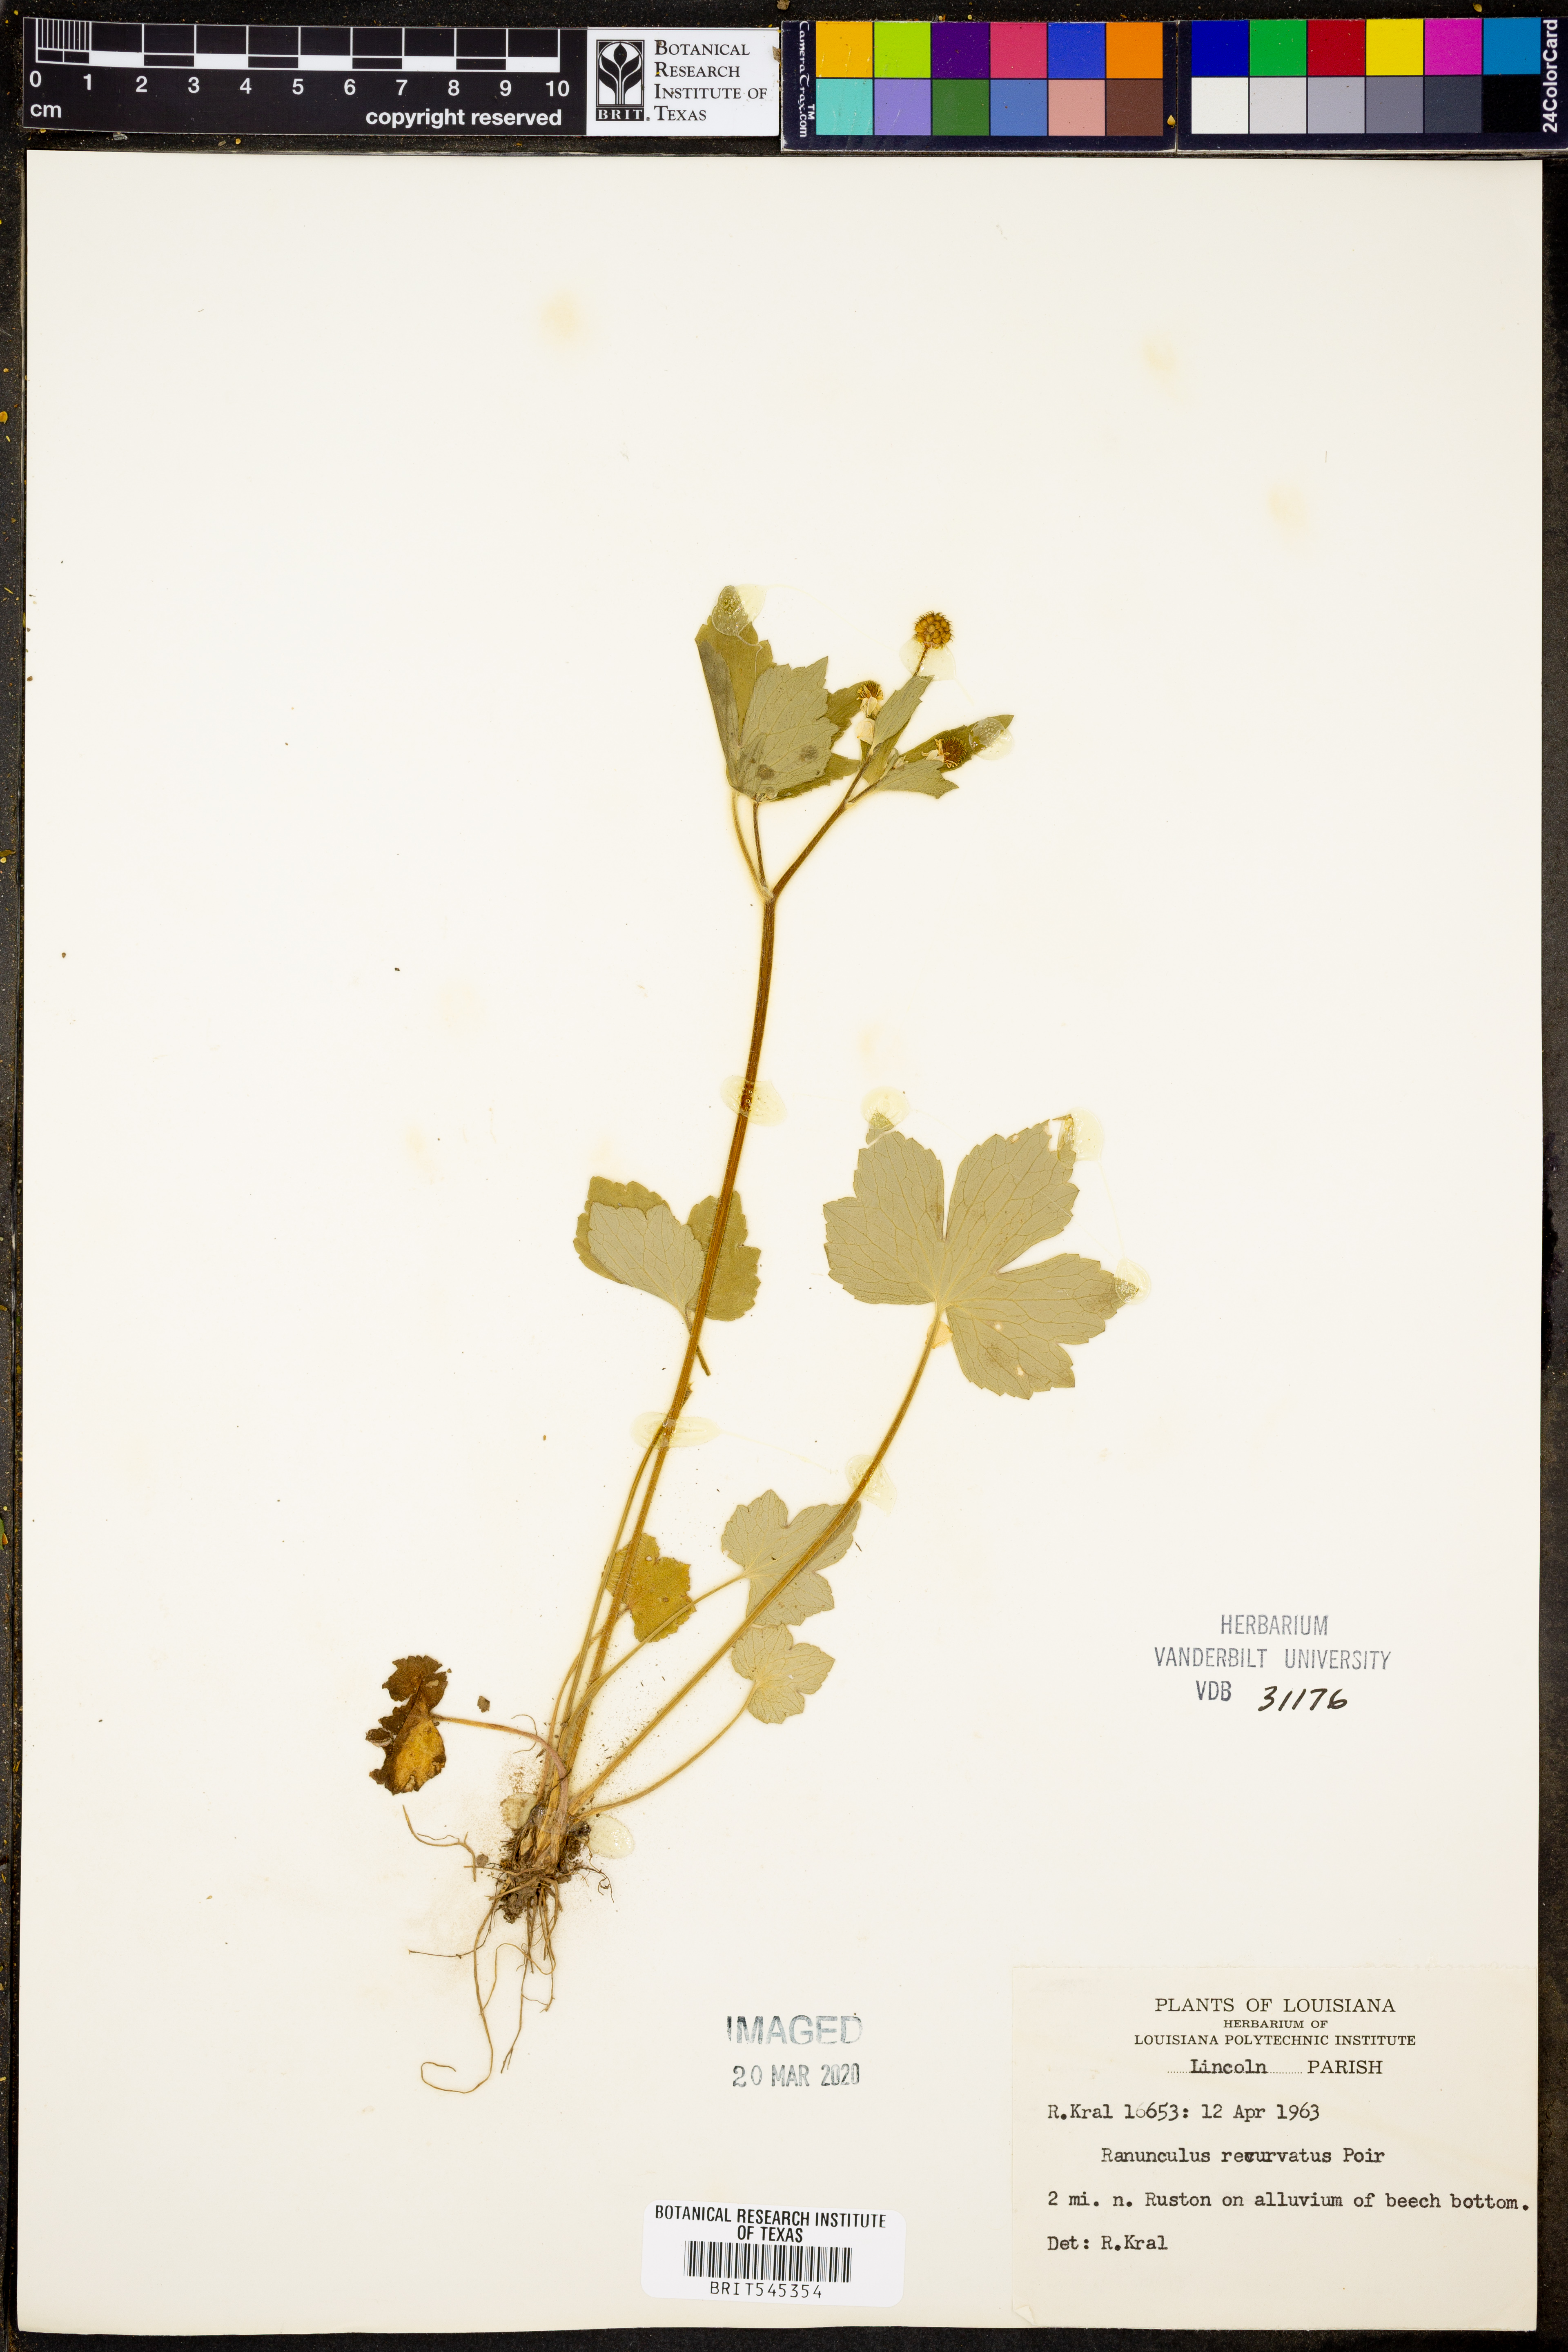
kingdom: Plantae
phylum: Tracheophyta
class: Magnoliopsida
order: Ranunculales
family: Ranunculaceae
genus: Ranunculus
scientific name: Ranunculus recurvatus
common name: Blisterwort
